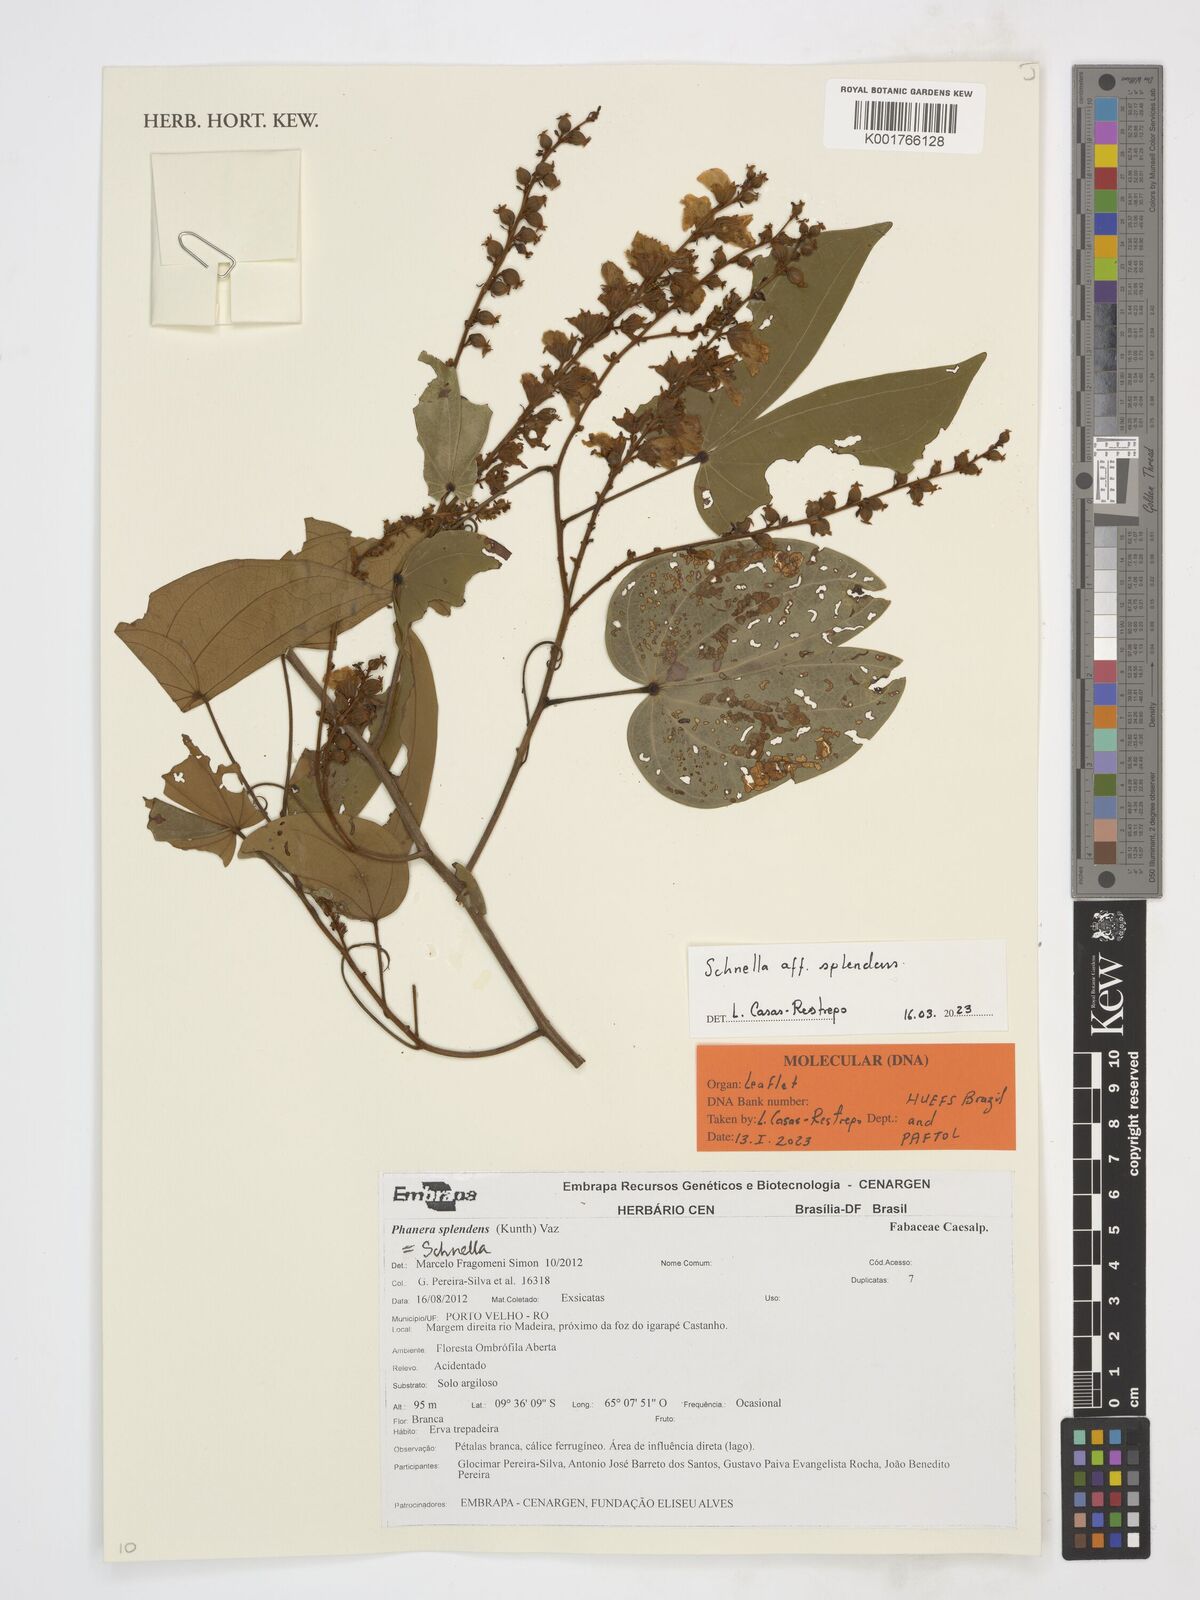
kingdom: Plantae
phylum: Tracheophyta
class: Magnoliopsida
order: Fabales
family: Fabaceae
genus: Schnella
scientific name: Schnella splendens
